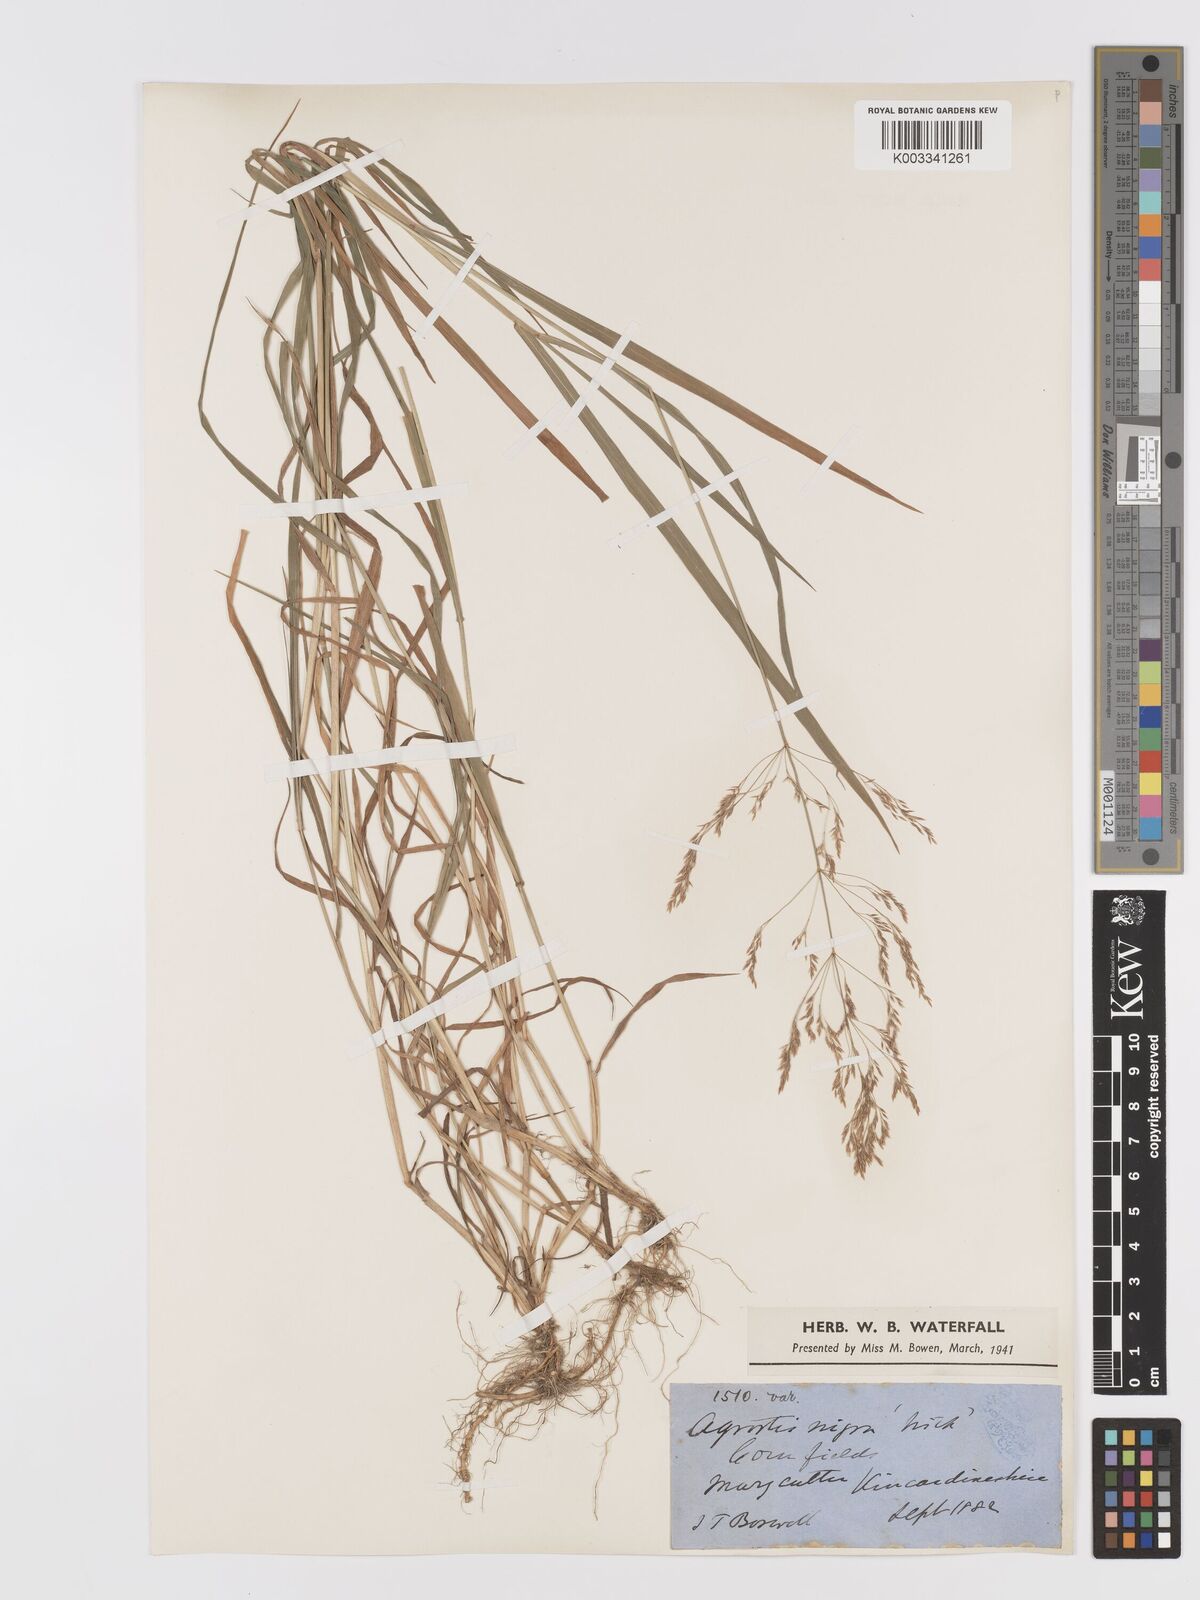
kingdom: Plantae
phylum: Tracheophyta
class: Liliopsida
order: Poales
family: Poaceae
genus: Agrostis
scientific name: Agrostis gigantea
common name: Black bent
